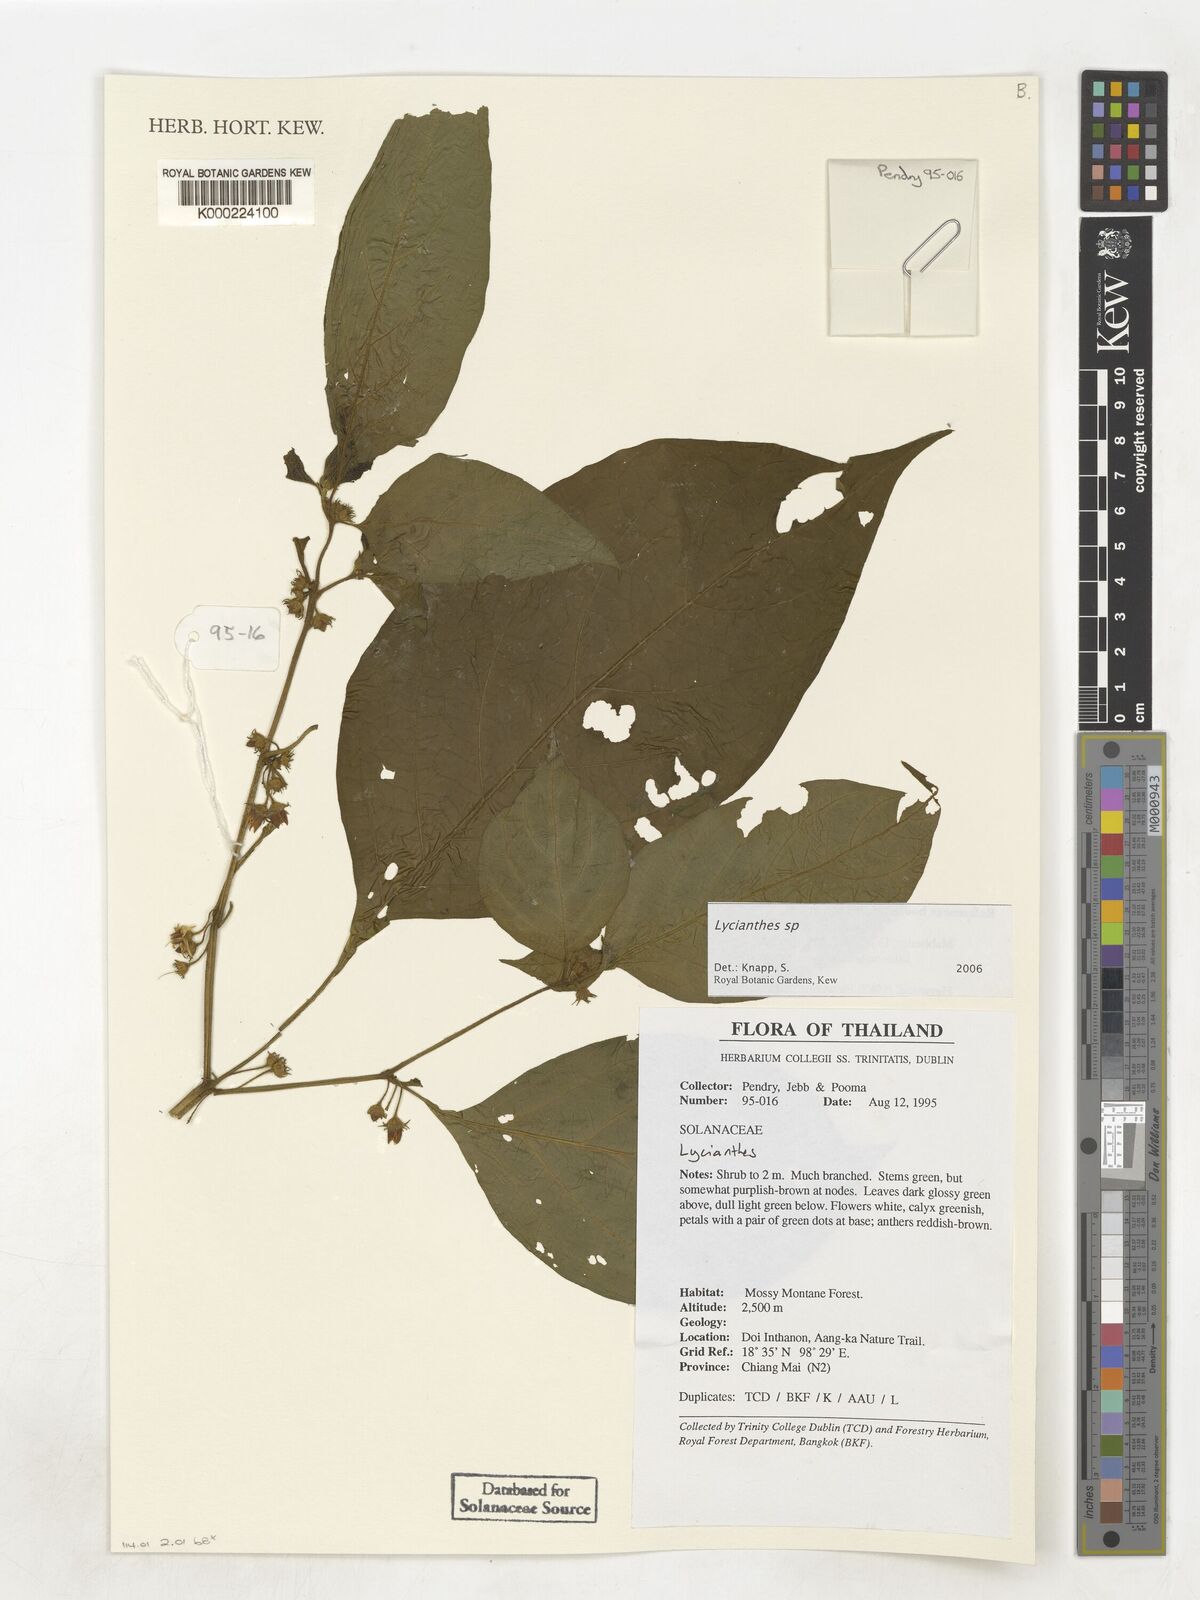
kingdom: Plantae
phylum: Tracheophyta
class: Magnoliopsida
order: Solanales
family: Solanaceae
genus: Lycianthes
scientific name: Lycianthes
